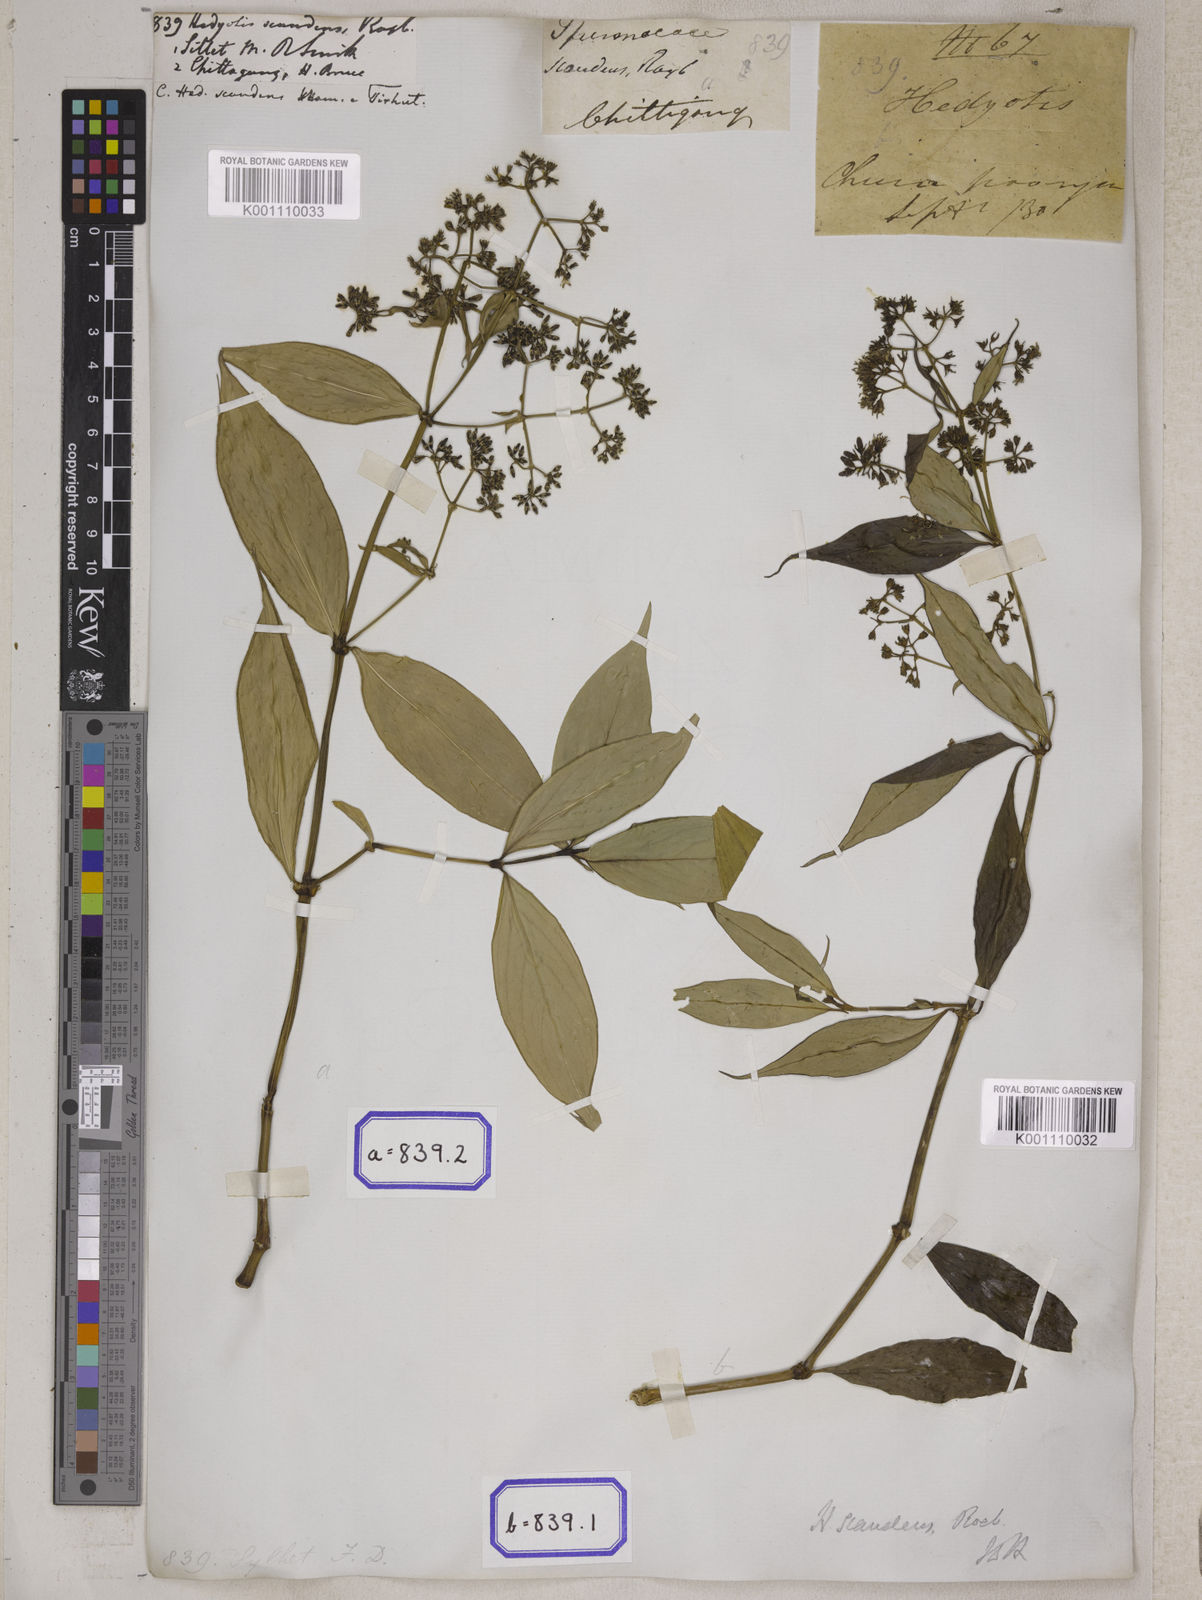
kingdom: Plantae
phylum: Tracheophyta
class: Magnoliopsida
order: Gentianales
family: Rubiaceae
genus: Dimetia
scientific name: Dimetia scandens
